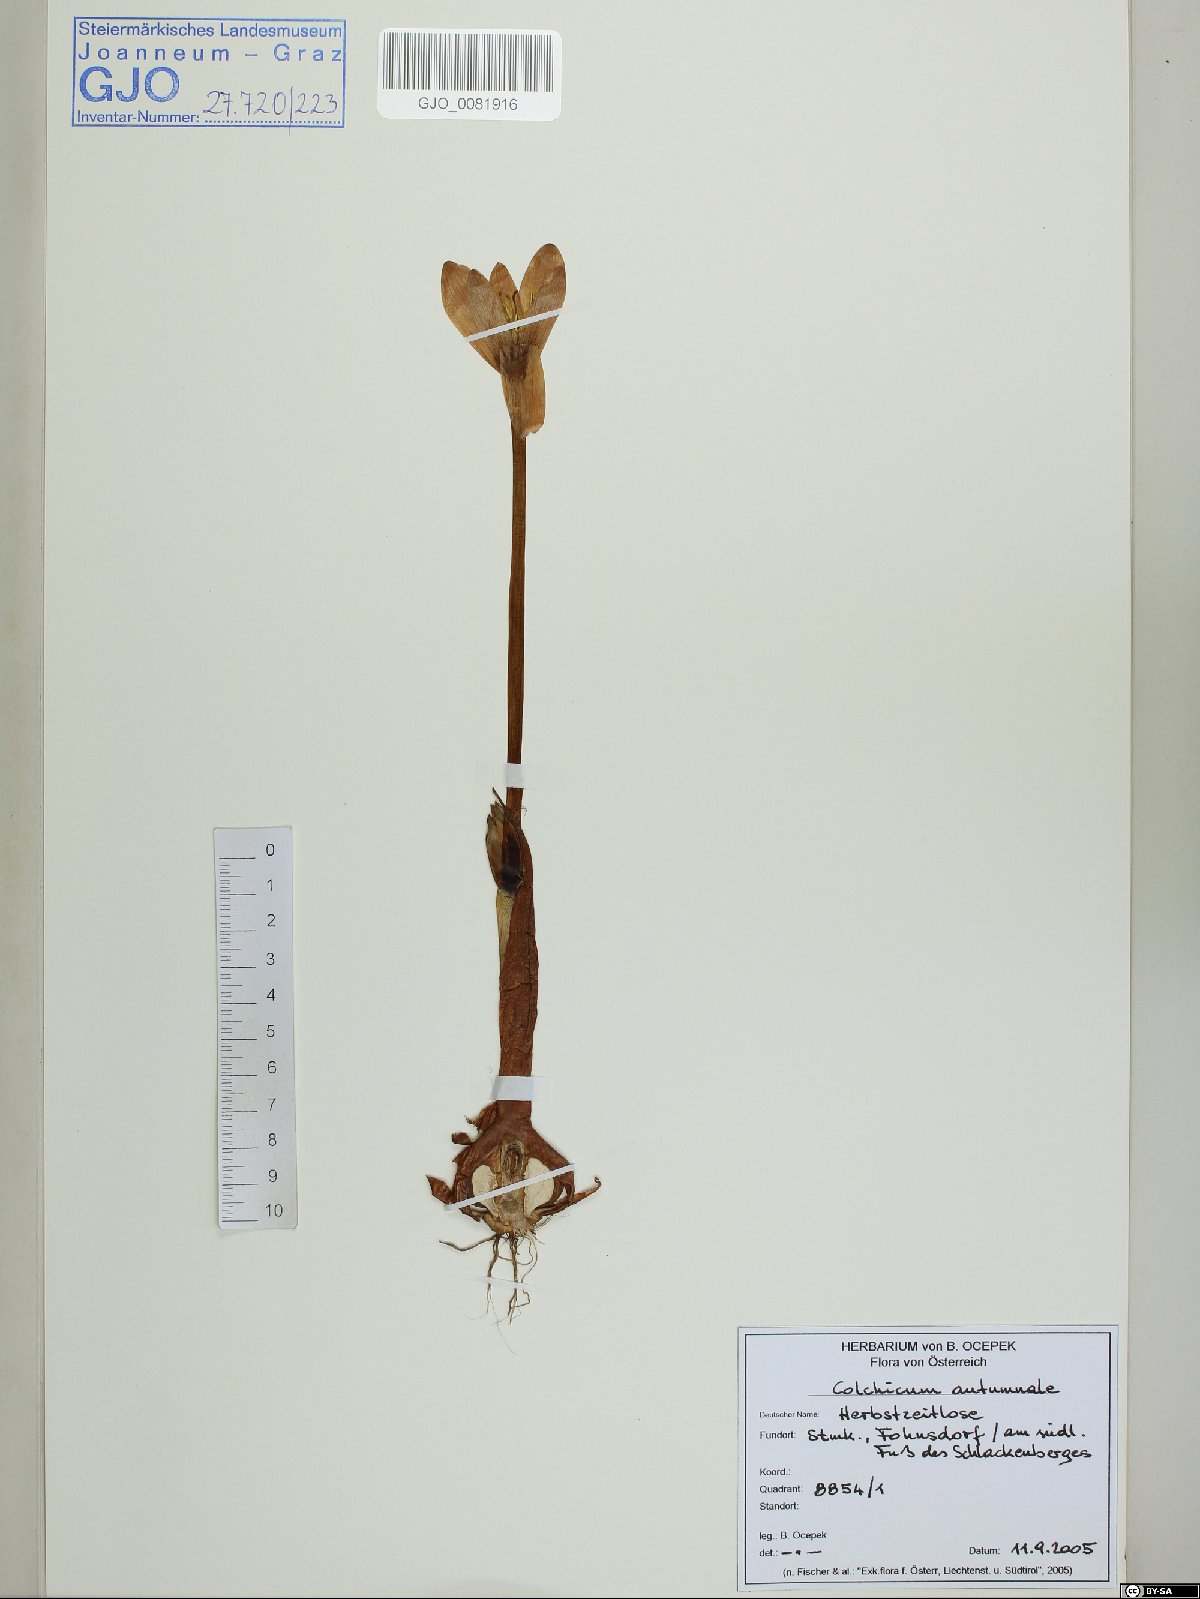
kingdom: Plantae
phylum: Tracheophyta
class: Liliopsida
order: Liliales
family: Colchicaceae
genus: Colchicum
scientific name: Colchicum autumnale
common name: Autumn crocus
